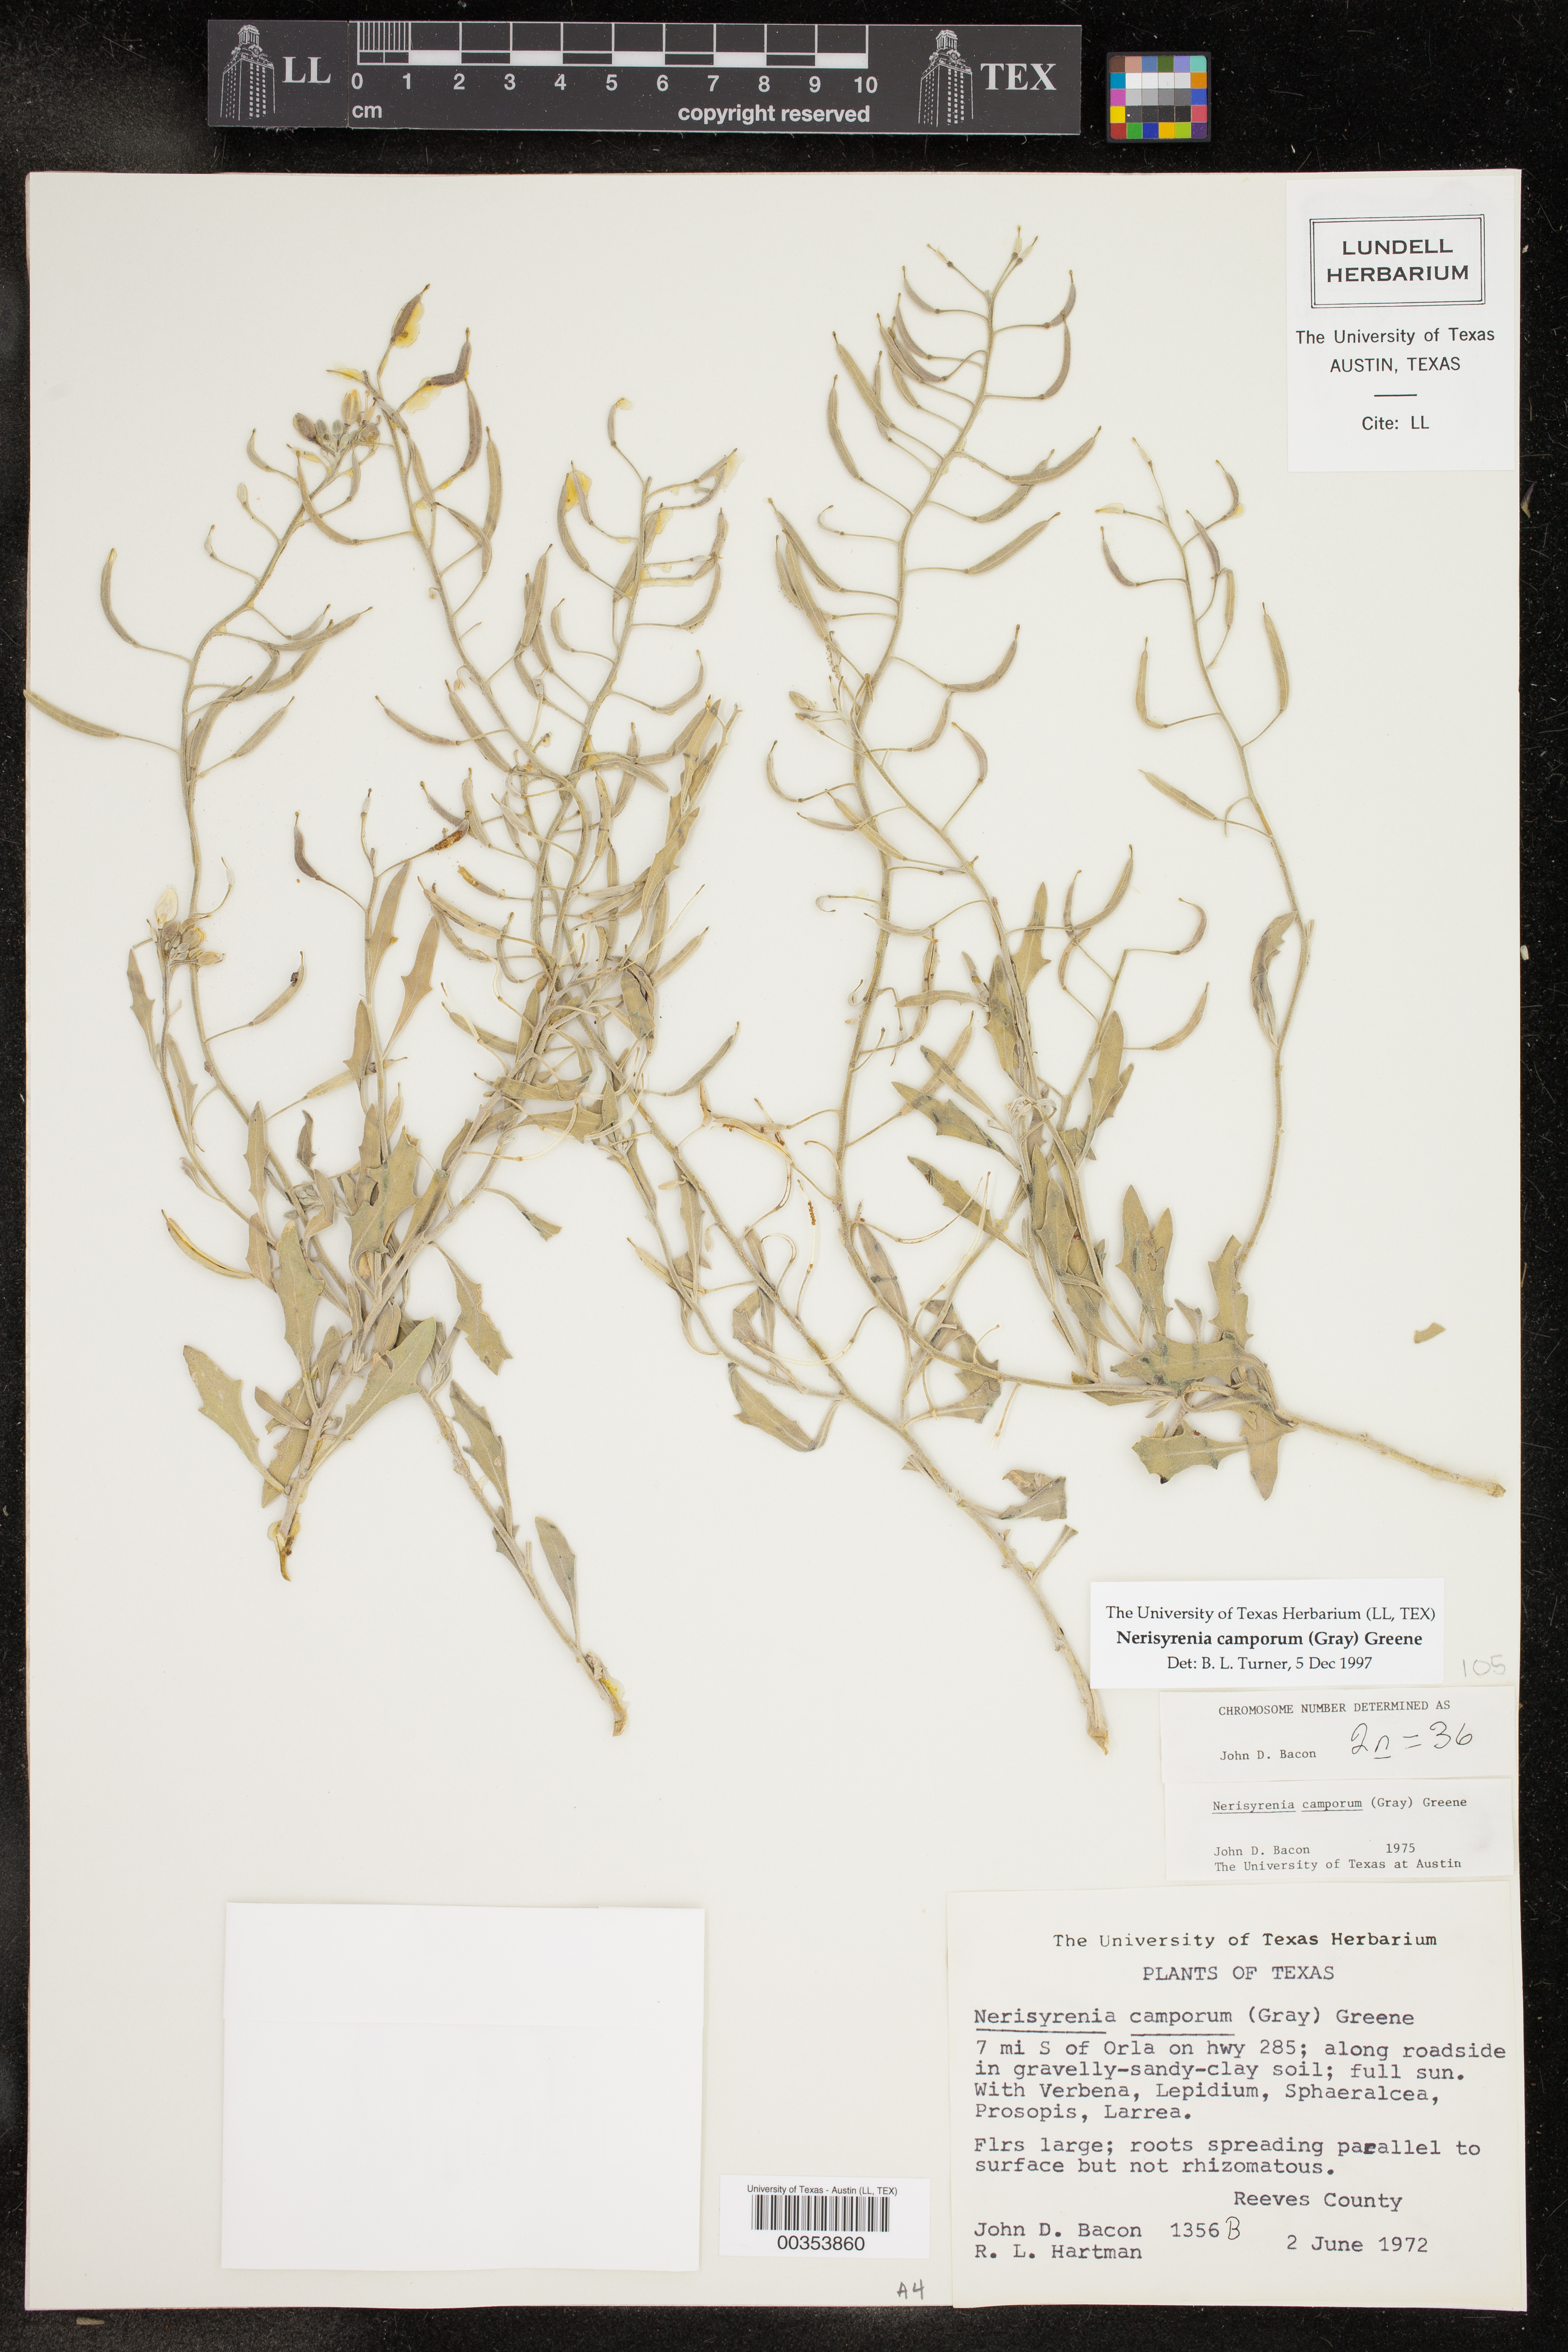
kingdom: Plantae
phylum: Tracheophyta
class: Magnoliopsida
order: Brassicales
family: Brassicaceae
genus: Nerisyrenia
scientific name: Nerisyrenia camporum
